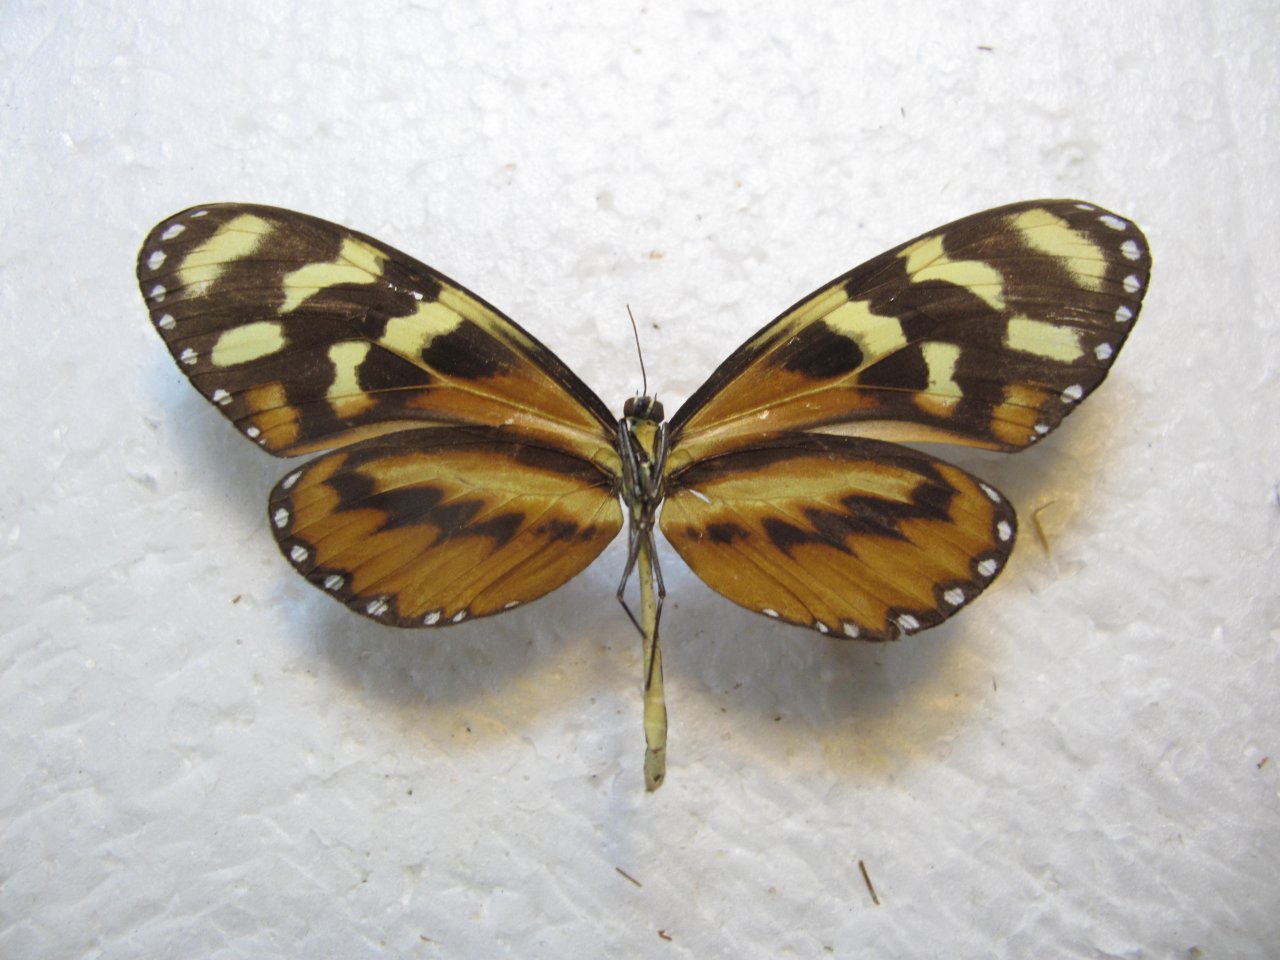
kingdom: Animalia
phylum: Arthropoda
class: Insecta
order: Lepidoptera
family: Nymphalidae
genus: Mechanitis
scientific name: Mechanitis polymnia
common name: Polymnia Tigerwing
